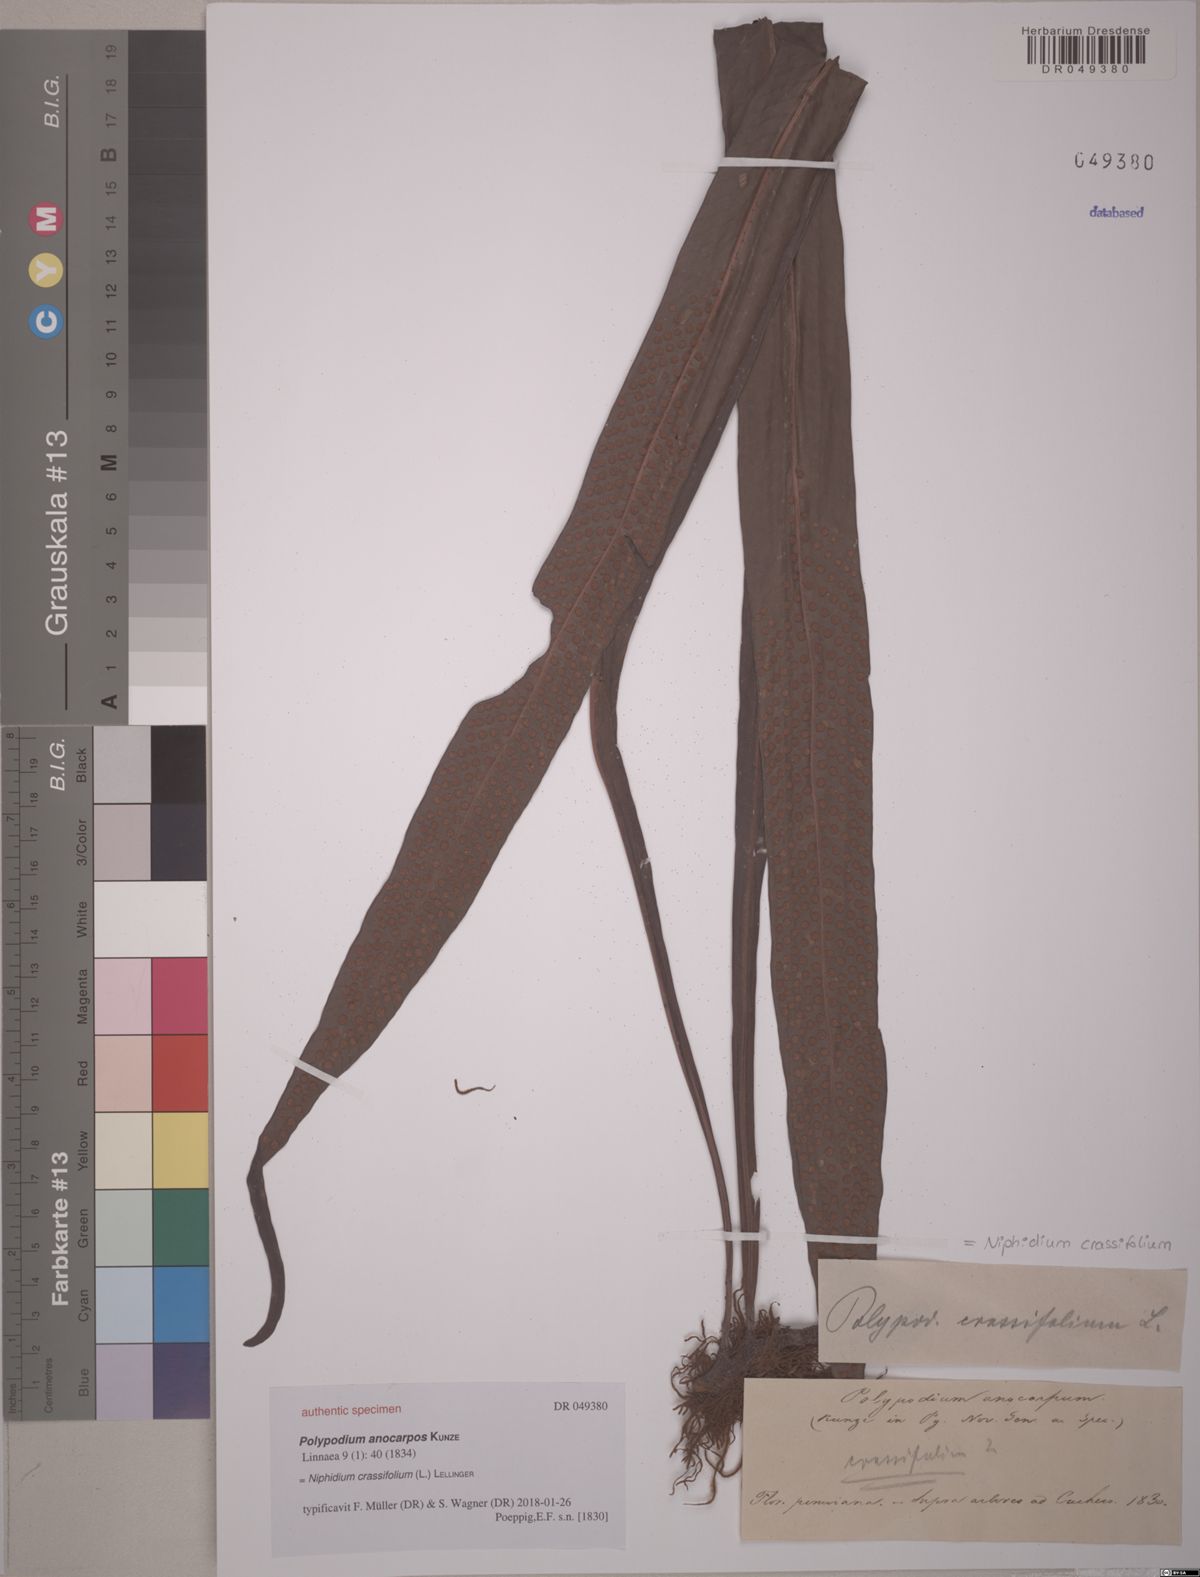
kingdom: Plantae
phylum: Tracheophyta
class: Polypodiopsida
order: Polypodiales
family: Polypodiaceae
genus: Niphidium
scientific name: Niphidium anocarpos
